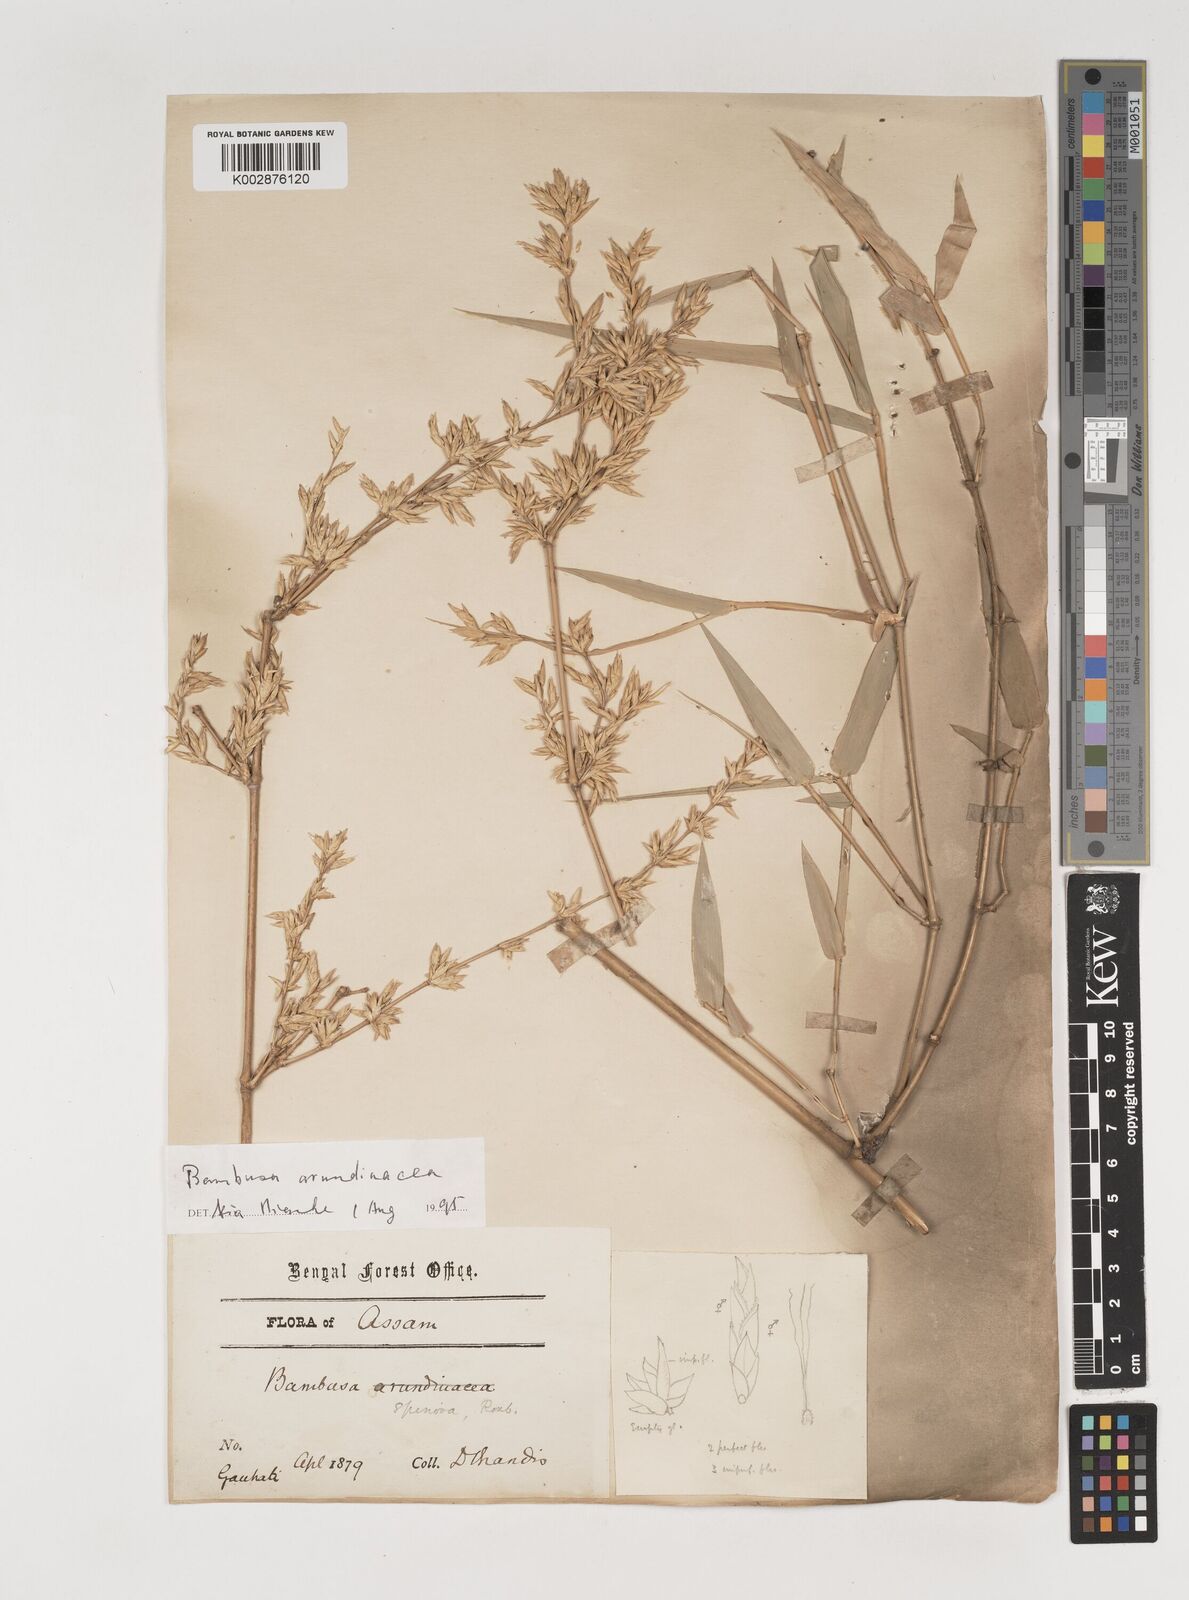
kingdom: Plantae
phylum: Tracheophyta
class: Liliopsida
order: Poales
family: Poaceae
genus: Bambusa
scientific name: Bambusa bambos
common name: Indian thorny bamboo
